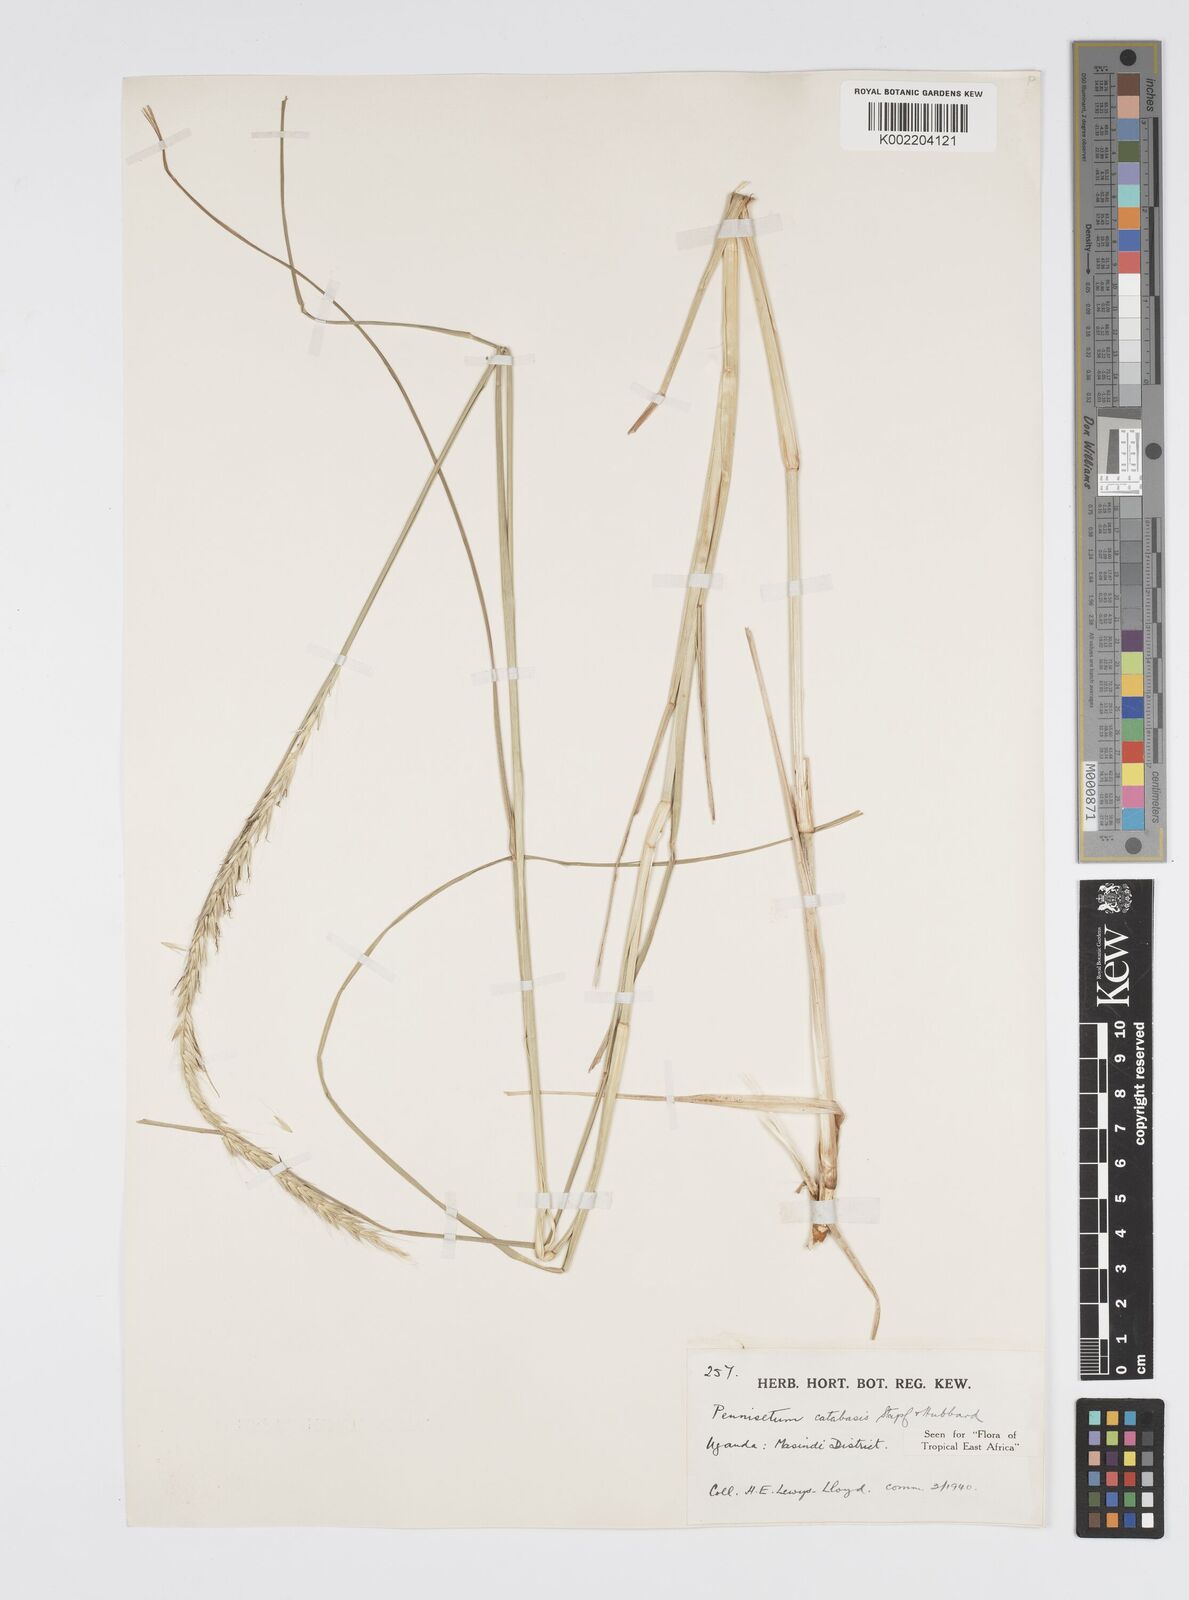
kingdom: Plantae
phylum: Tracheophyta
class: Liliopsida
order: Poales
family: Poaceae
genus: Cenchrus
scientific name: Cenchrus hohenackeri
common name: Moya grass
